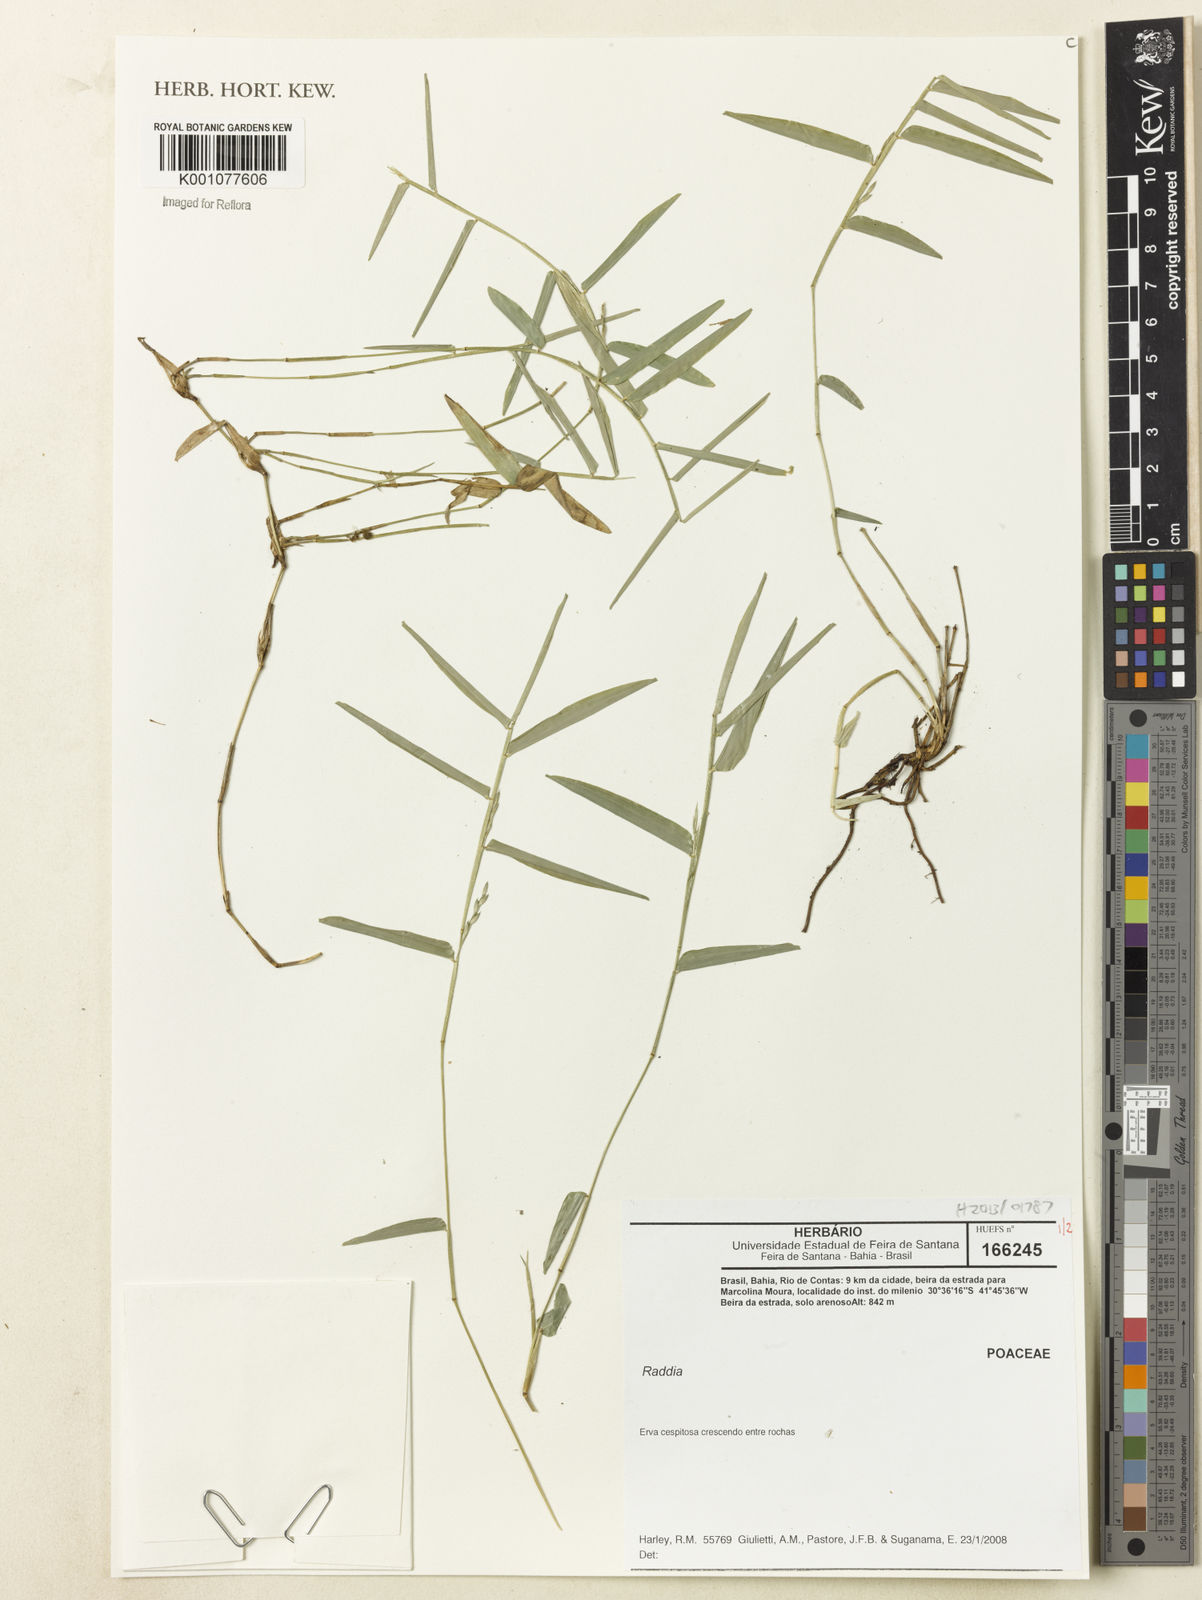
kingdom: Plantae
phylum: Tracheophyta
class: Liliopsida
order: Poales
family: Poaceae
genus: Raddia
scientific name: Raddia
